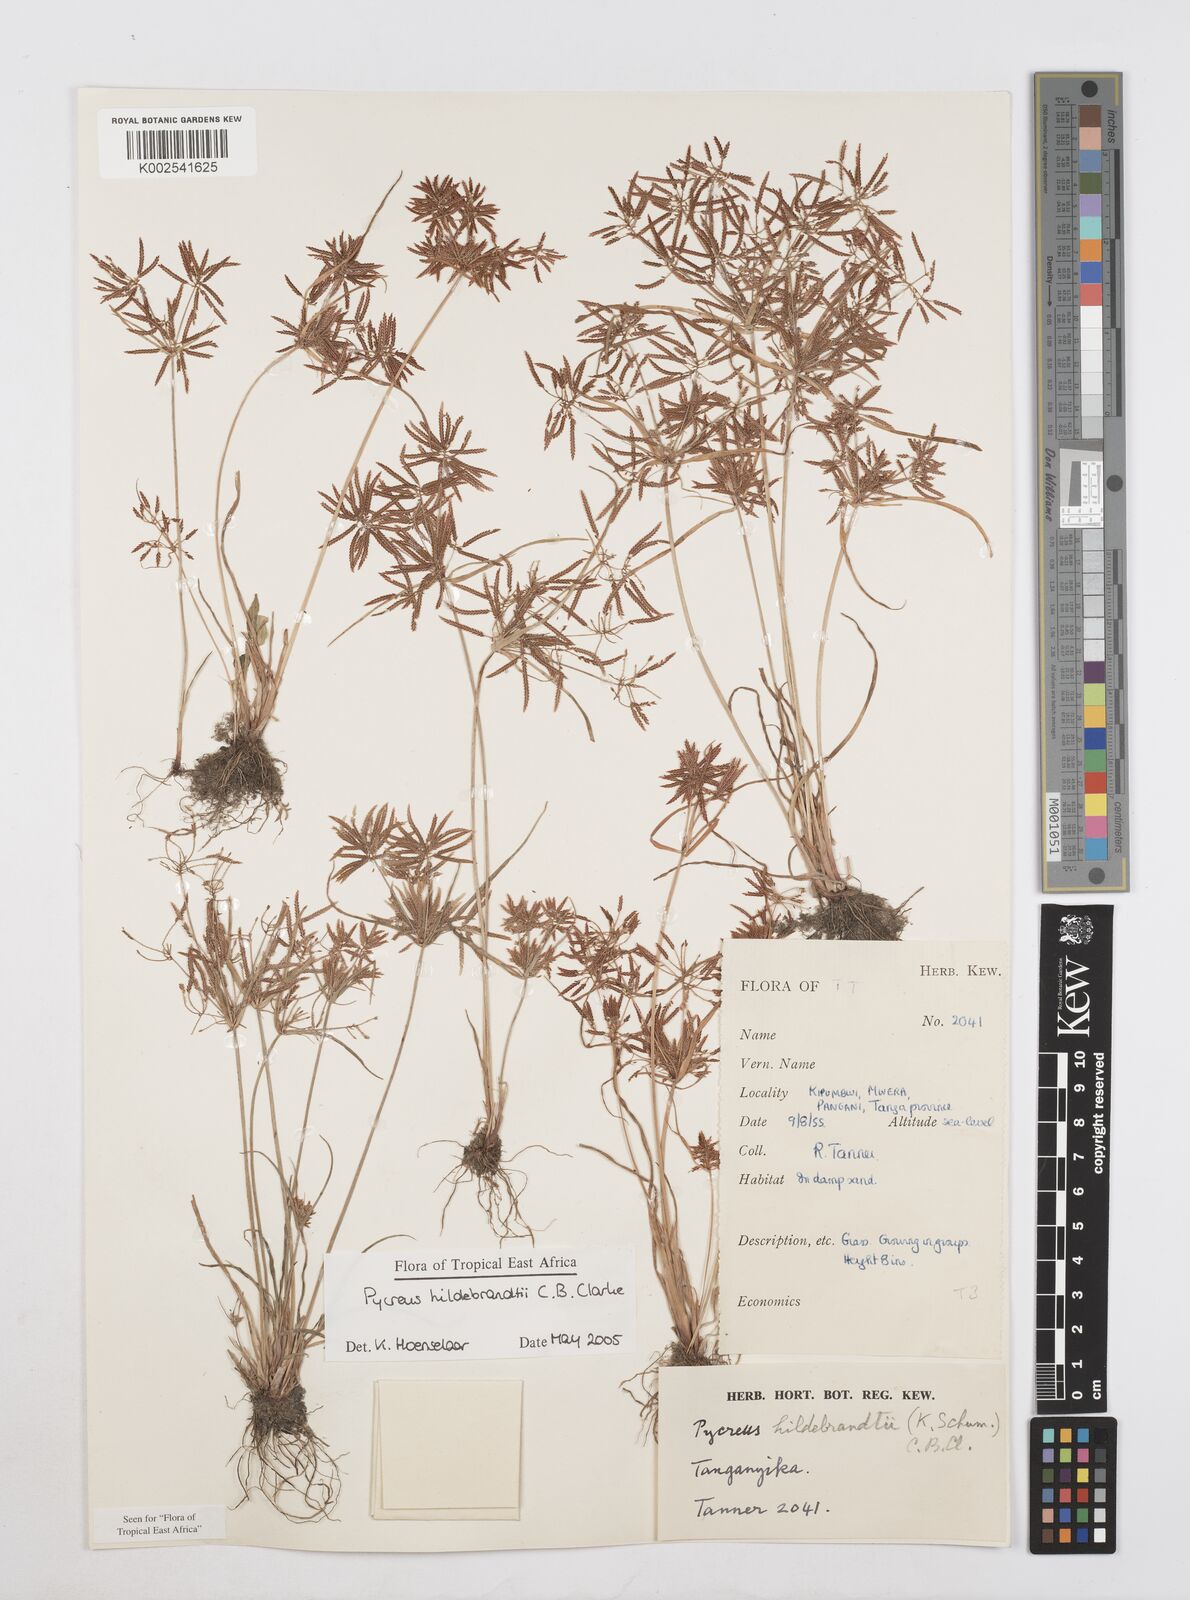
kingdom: Plantae
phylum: Tracheophyta
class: Liliopsida
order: Poales
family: Cyperaceae
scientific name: Cyperaceae
